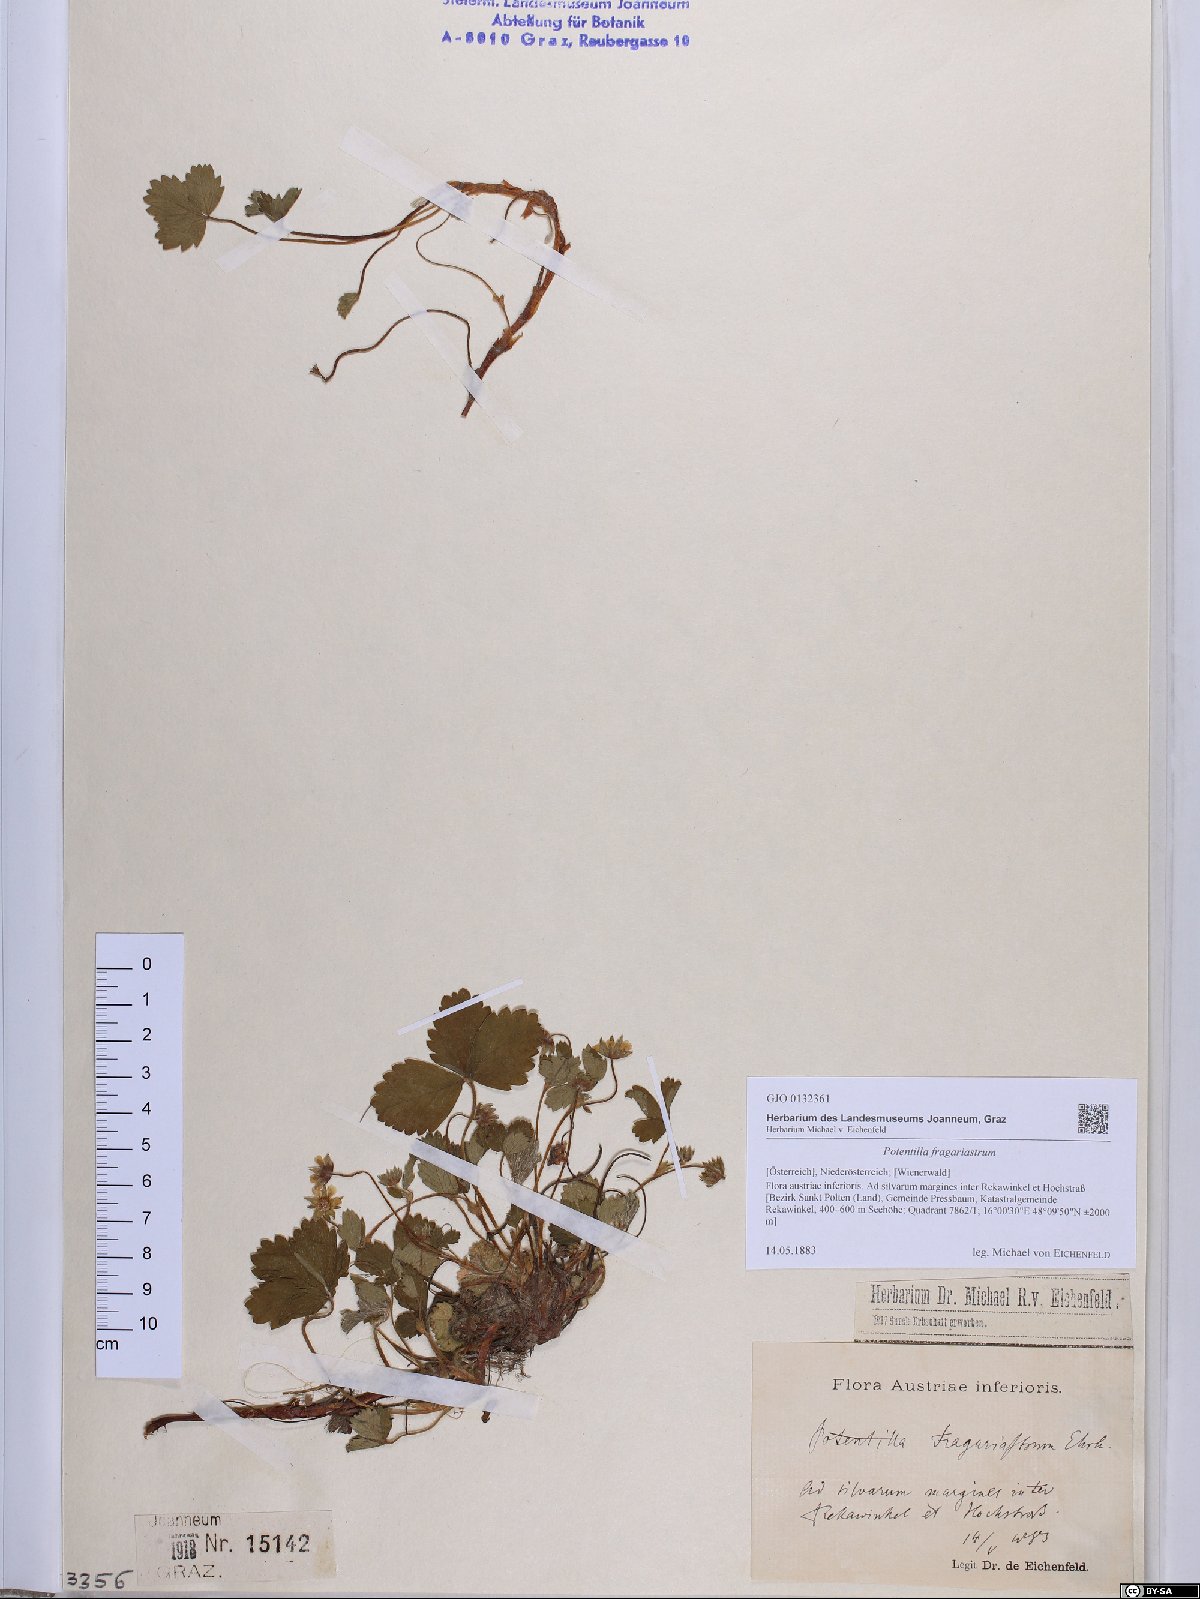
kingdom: Plantae
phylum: Tracheophyta
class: Magnoliopsida
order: Rosales
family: Rosaceae
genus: Potentilla
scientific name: Potentilla sterilis
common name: Barren strawberry
